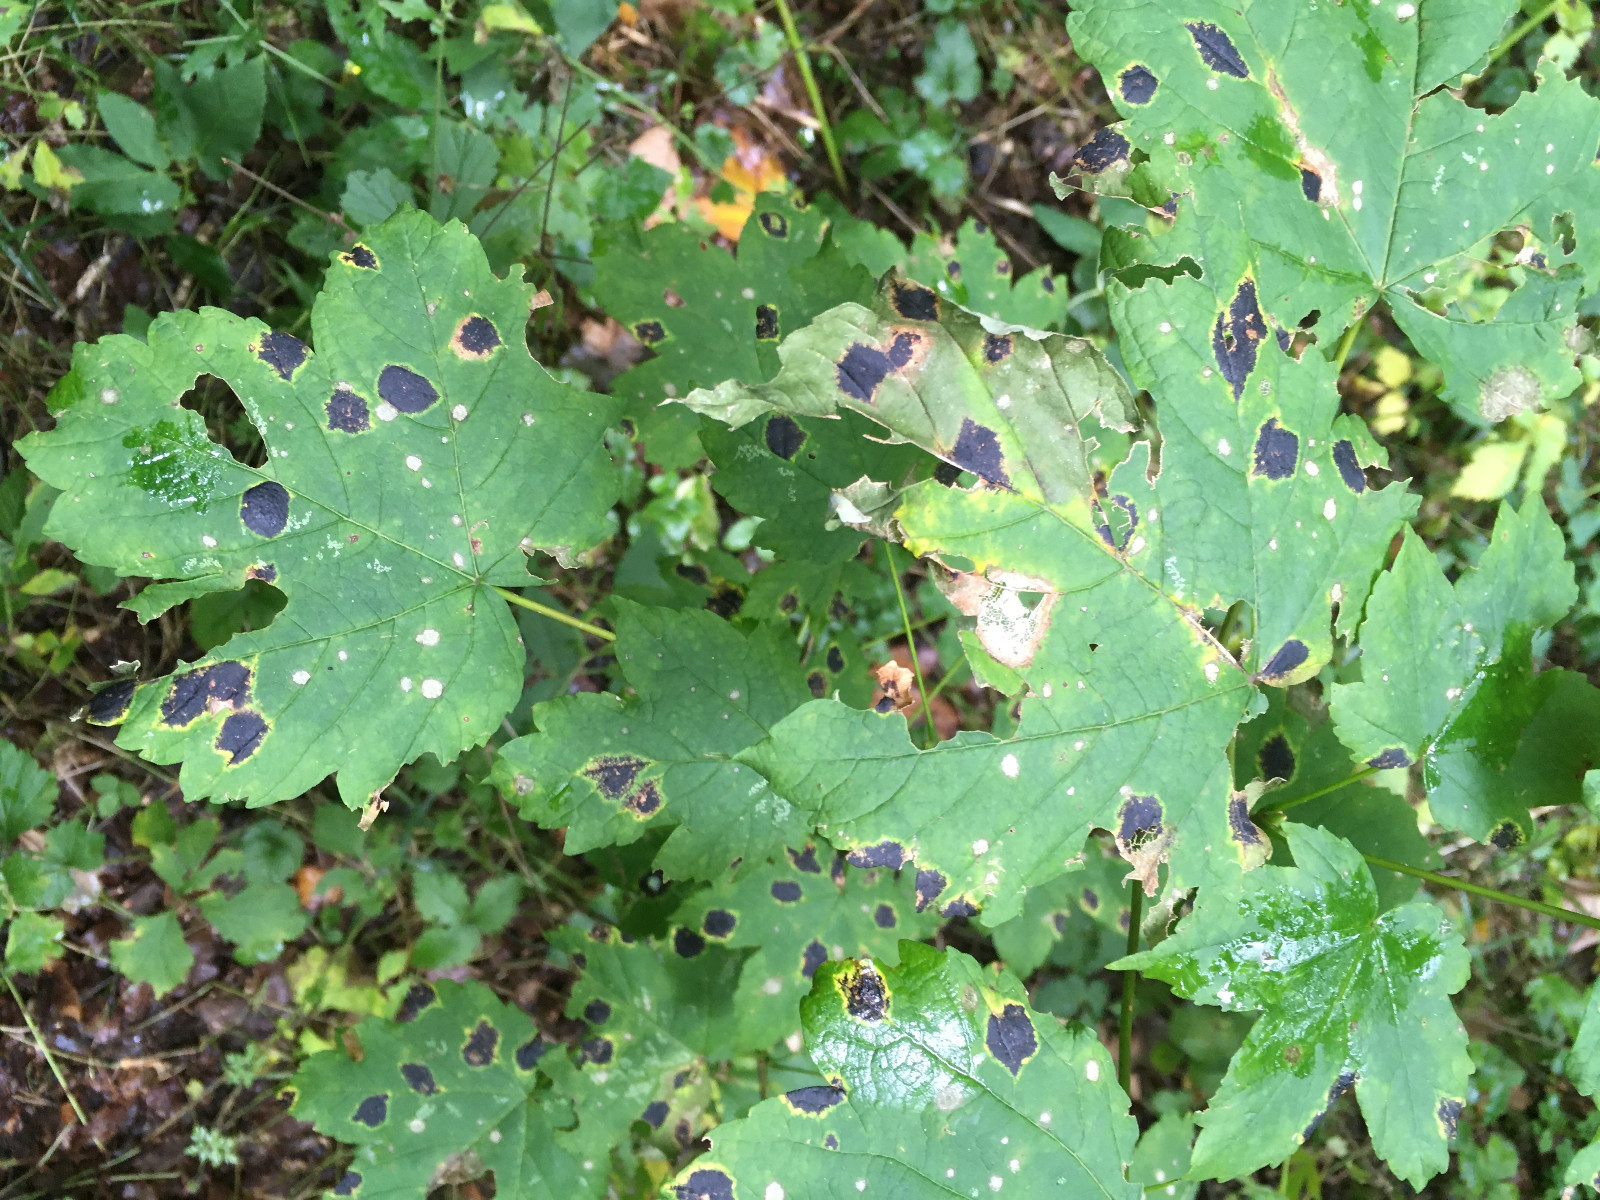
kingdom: Fungi
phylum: Ascomycota
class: Leotiomycetes
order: Rhytismatales
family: Rhytismataceae
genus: Rhytisma
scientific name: Rhytisma acerinum
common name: ahorn-rynkeplet
